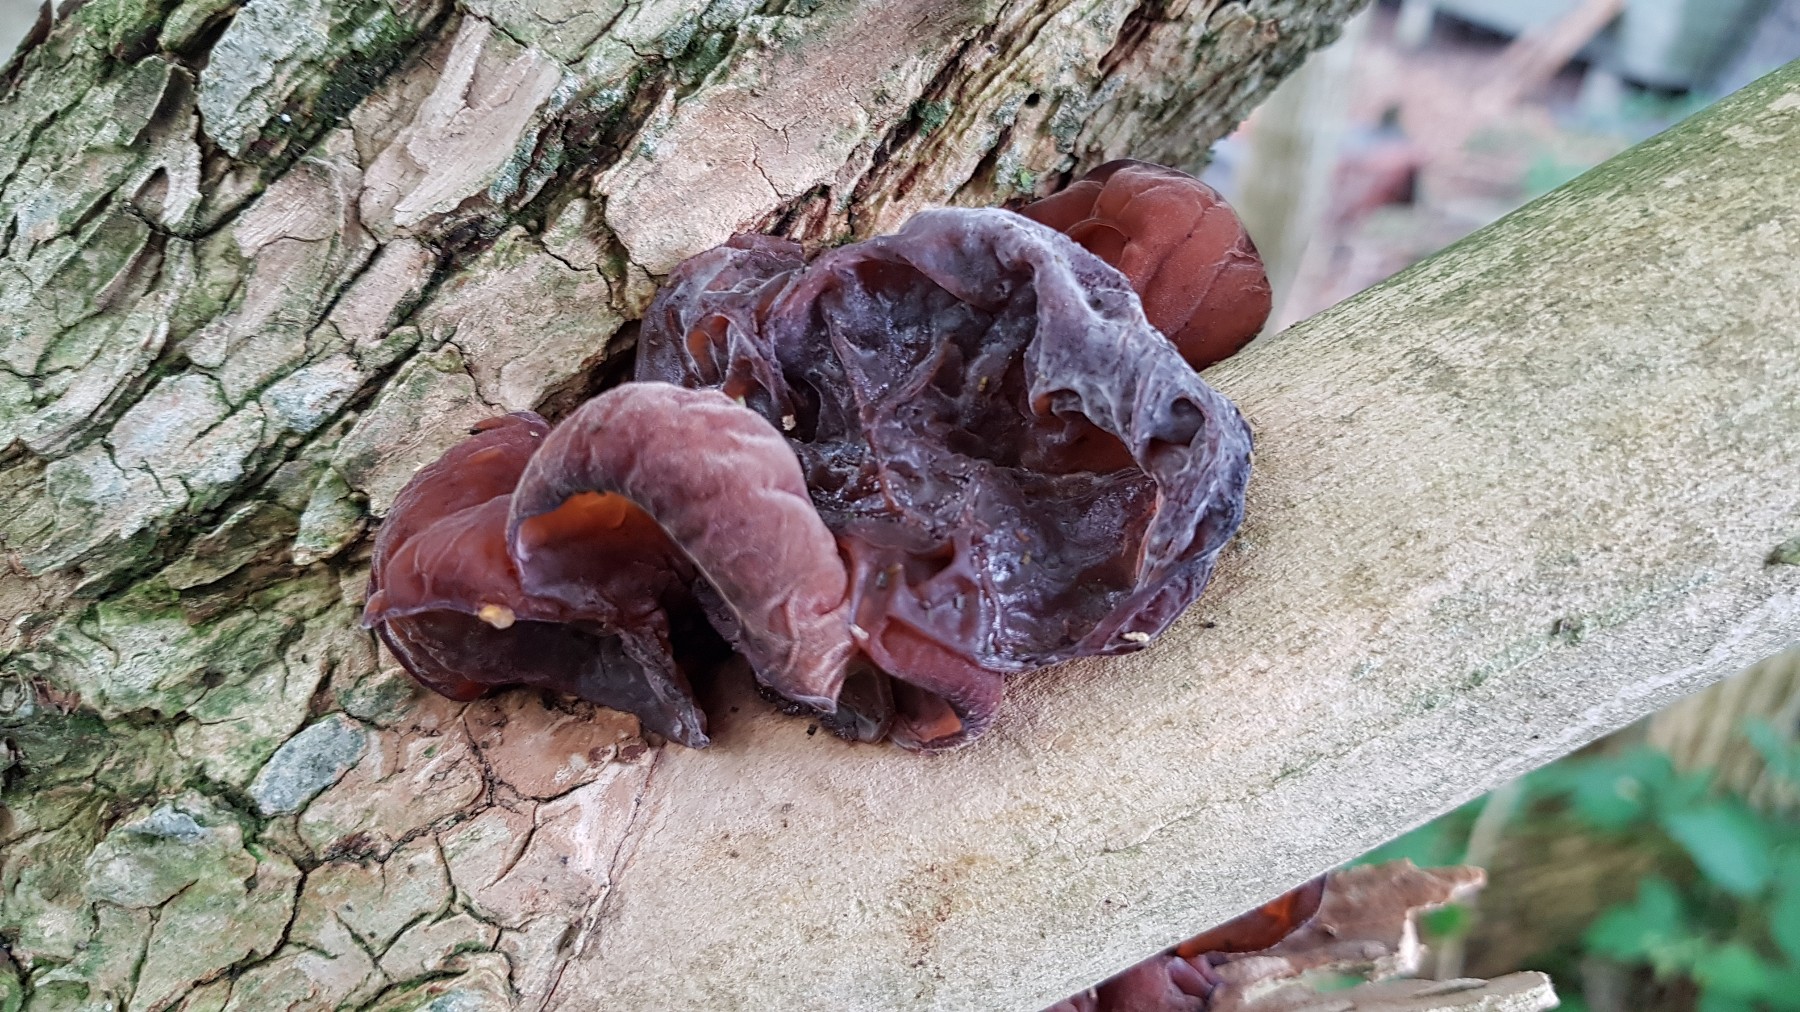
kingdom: Fungi
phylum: Basidiomycota
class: Agaricomycetes
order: Auriculariales
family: Auriculariaceae
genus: Auricularia
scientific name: Auricularia auricula-judae
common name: almindelig judasøre
